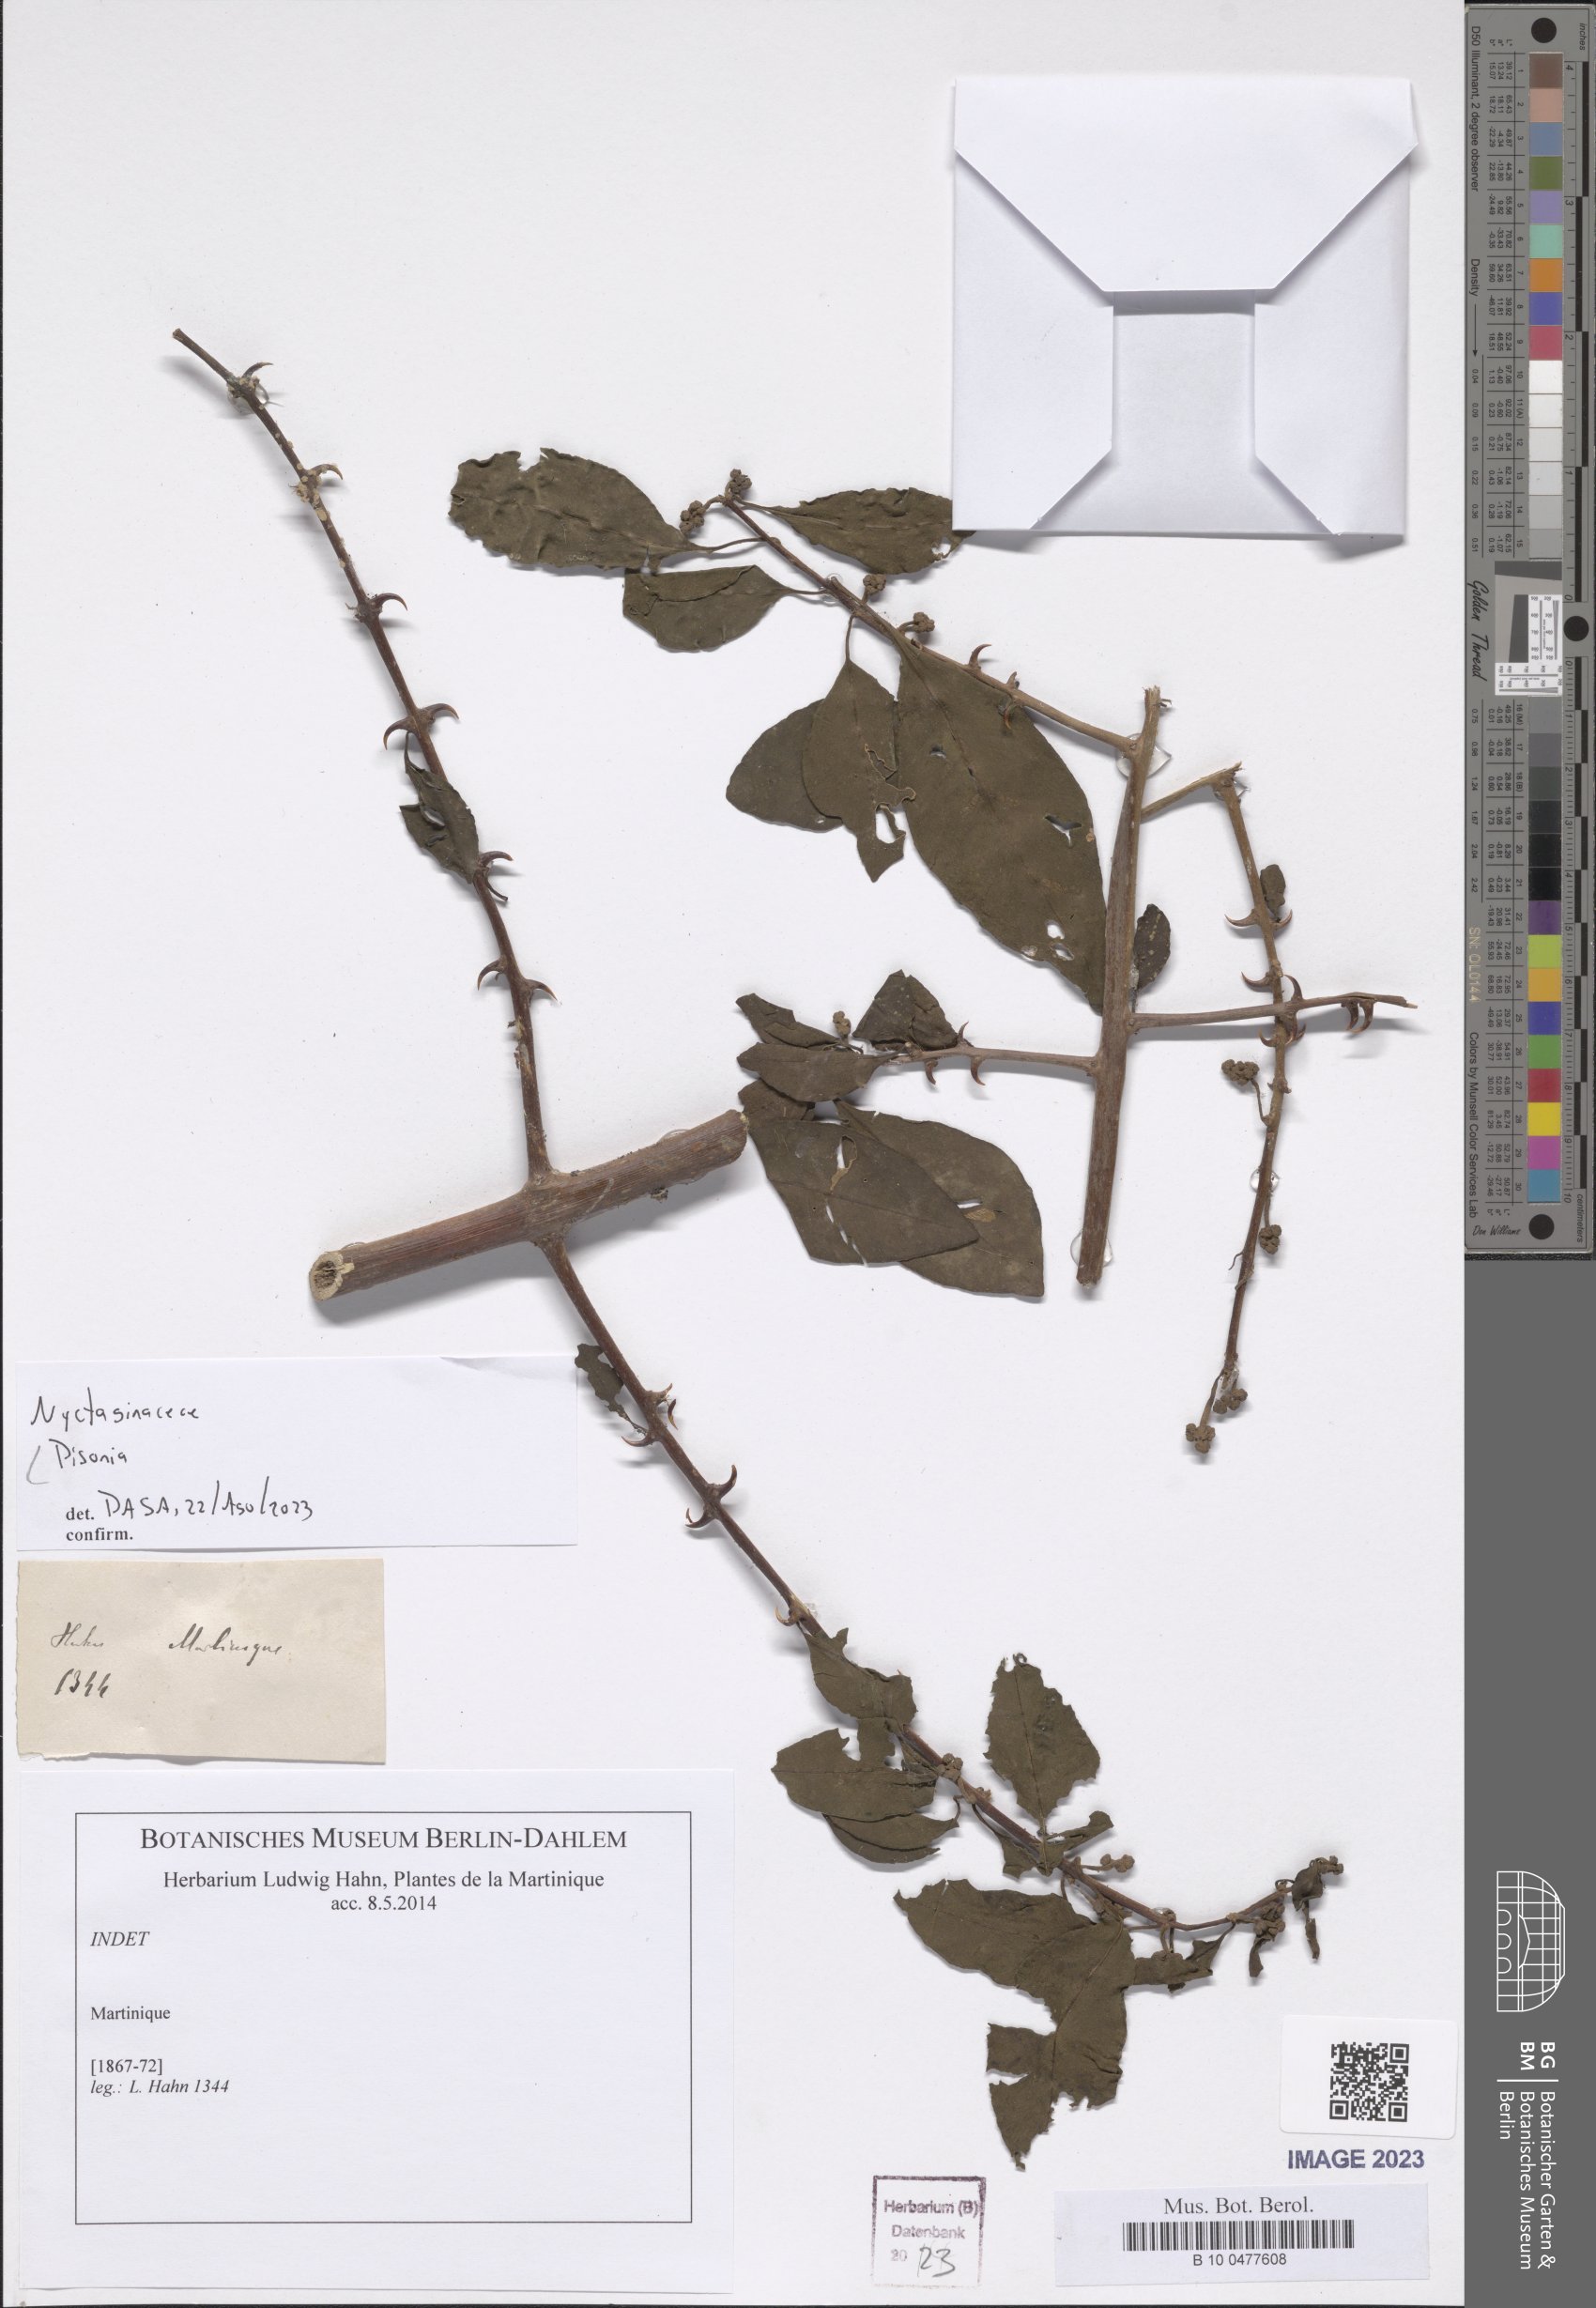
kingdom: Plantae
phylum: Tracheophyta
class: Magnoliopsida
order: Caryophyllales
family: Nyctaginaceae
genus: Pisonia
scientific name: Pisonia
